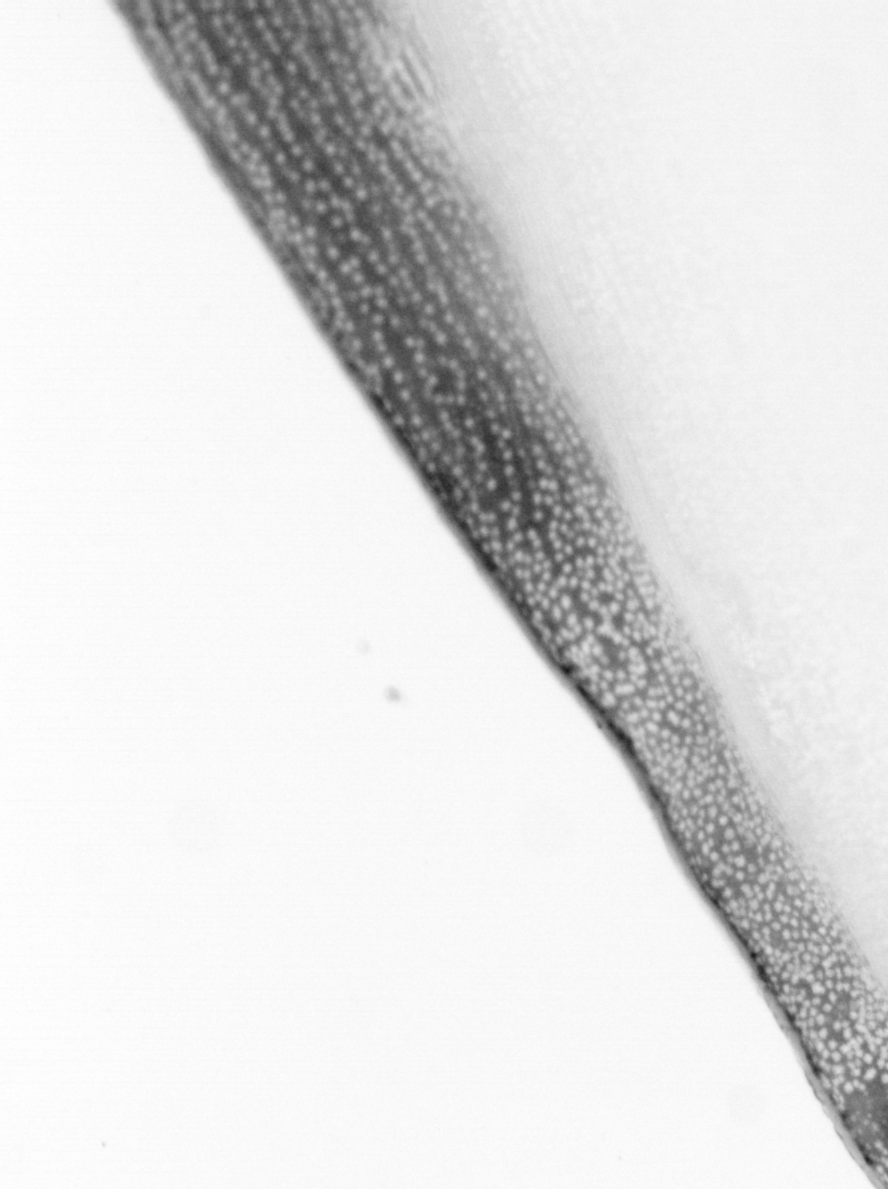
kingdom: Animalia
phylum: Chordata
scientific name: Chordata
